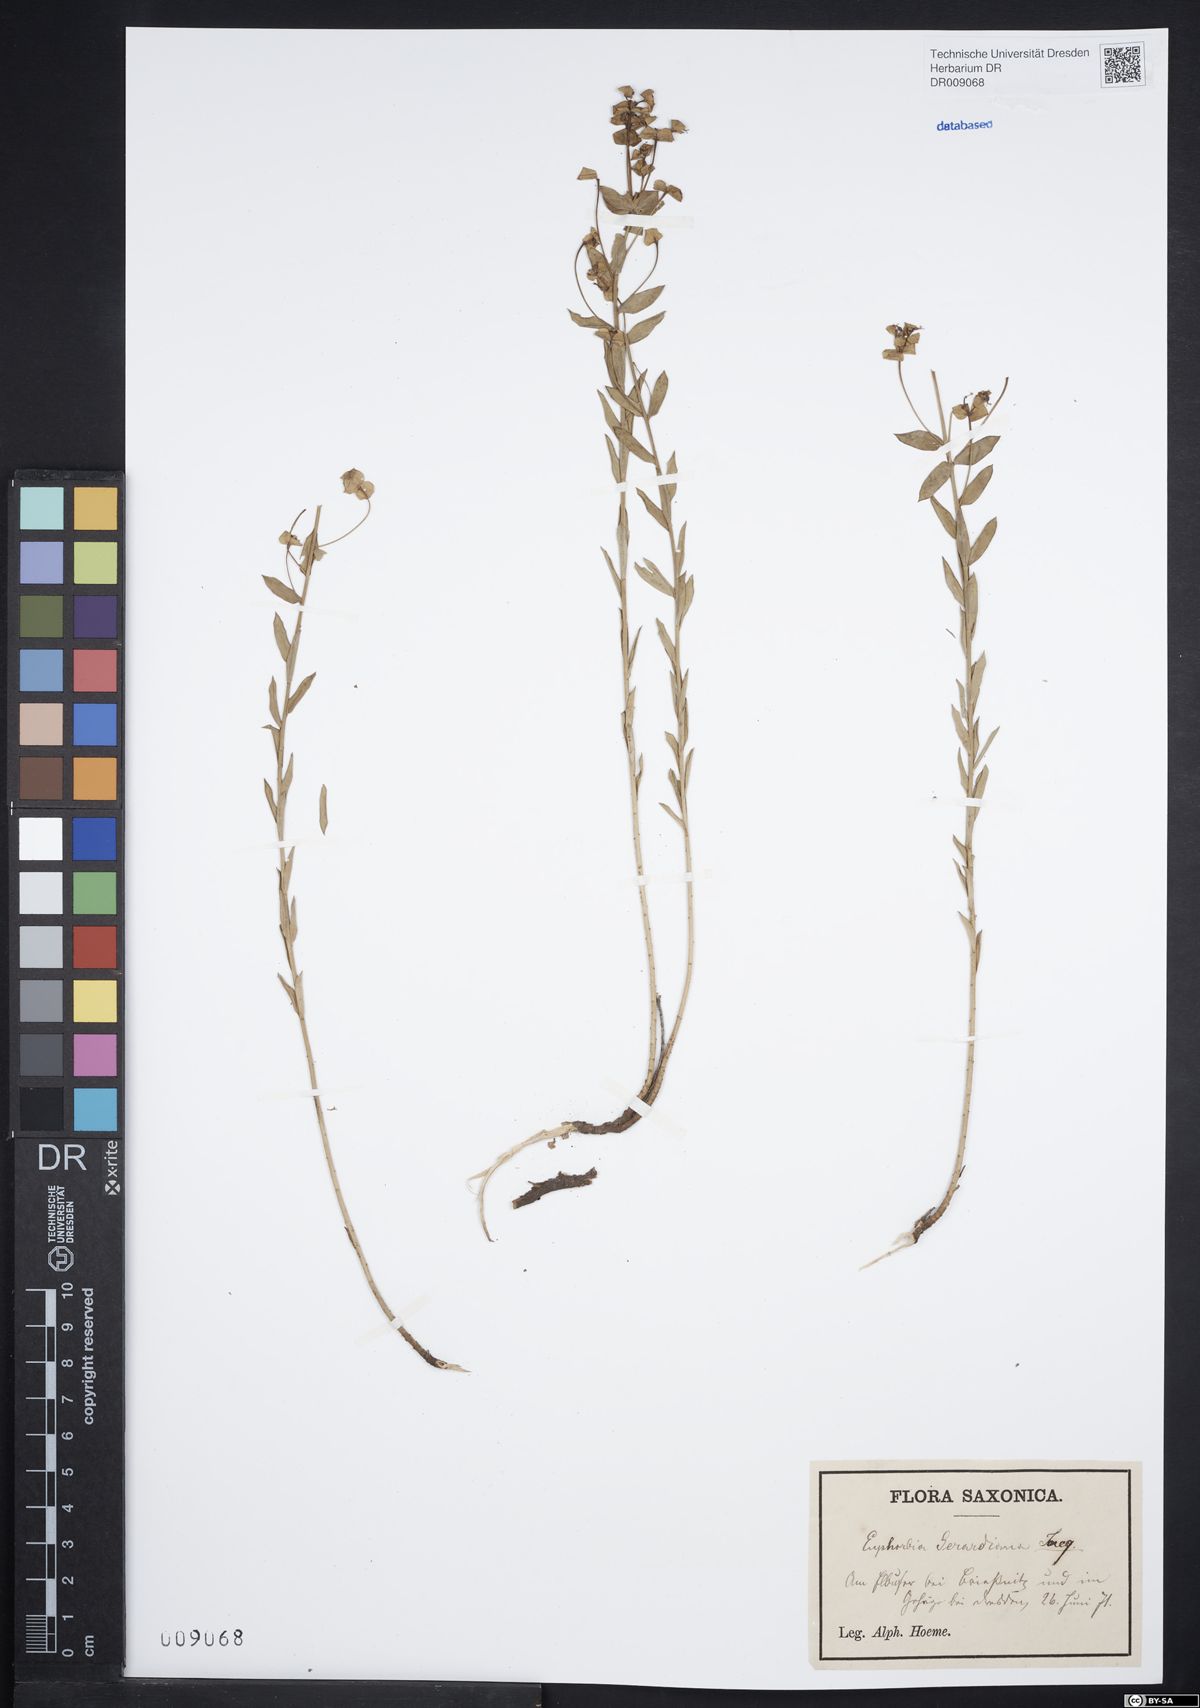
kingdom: Plantae
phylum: Tracheophyta
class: Magnoliopsida
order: Malpighiales
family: Euphorbiaceae
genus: Euphorbia
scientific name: Euphorbia seguieriana
